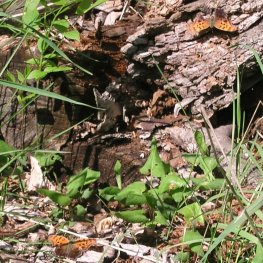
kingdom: Animalia
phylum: Arthropoda
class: Insecta
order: Lepidoptera
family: Nymphalidae
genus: Polygonia
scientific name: Polygonia interrogationis
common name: Question Mark
